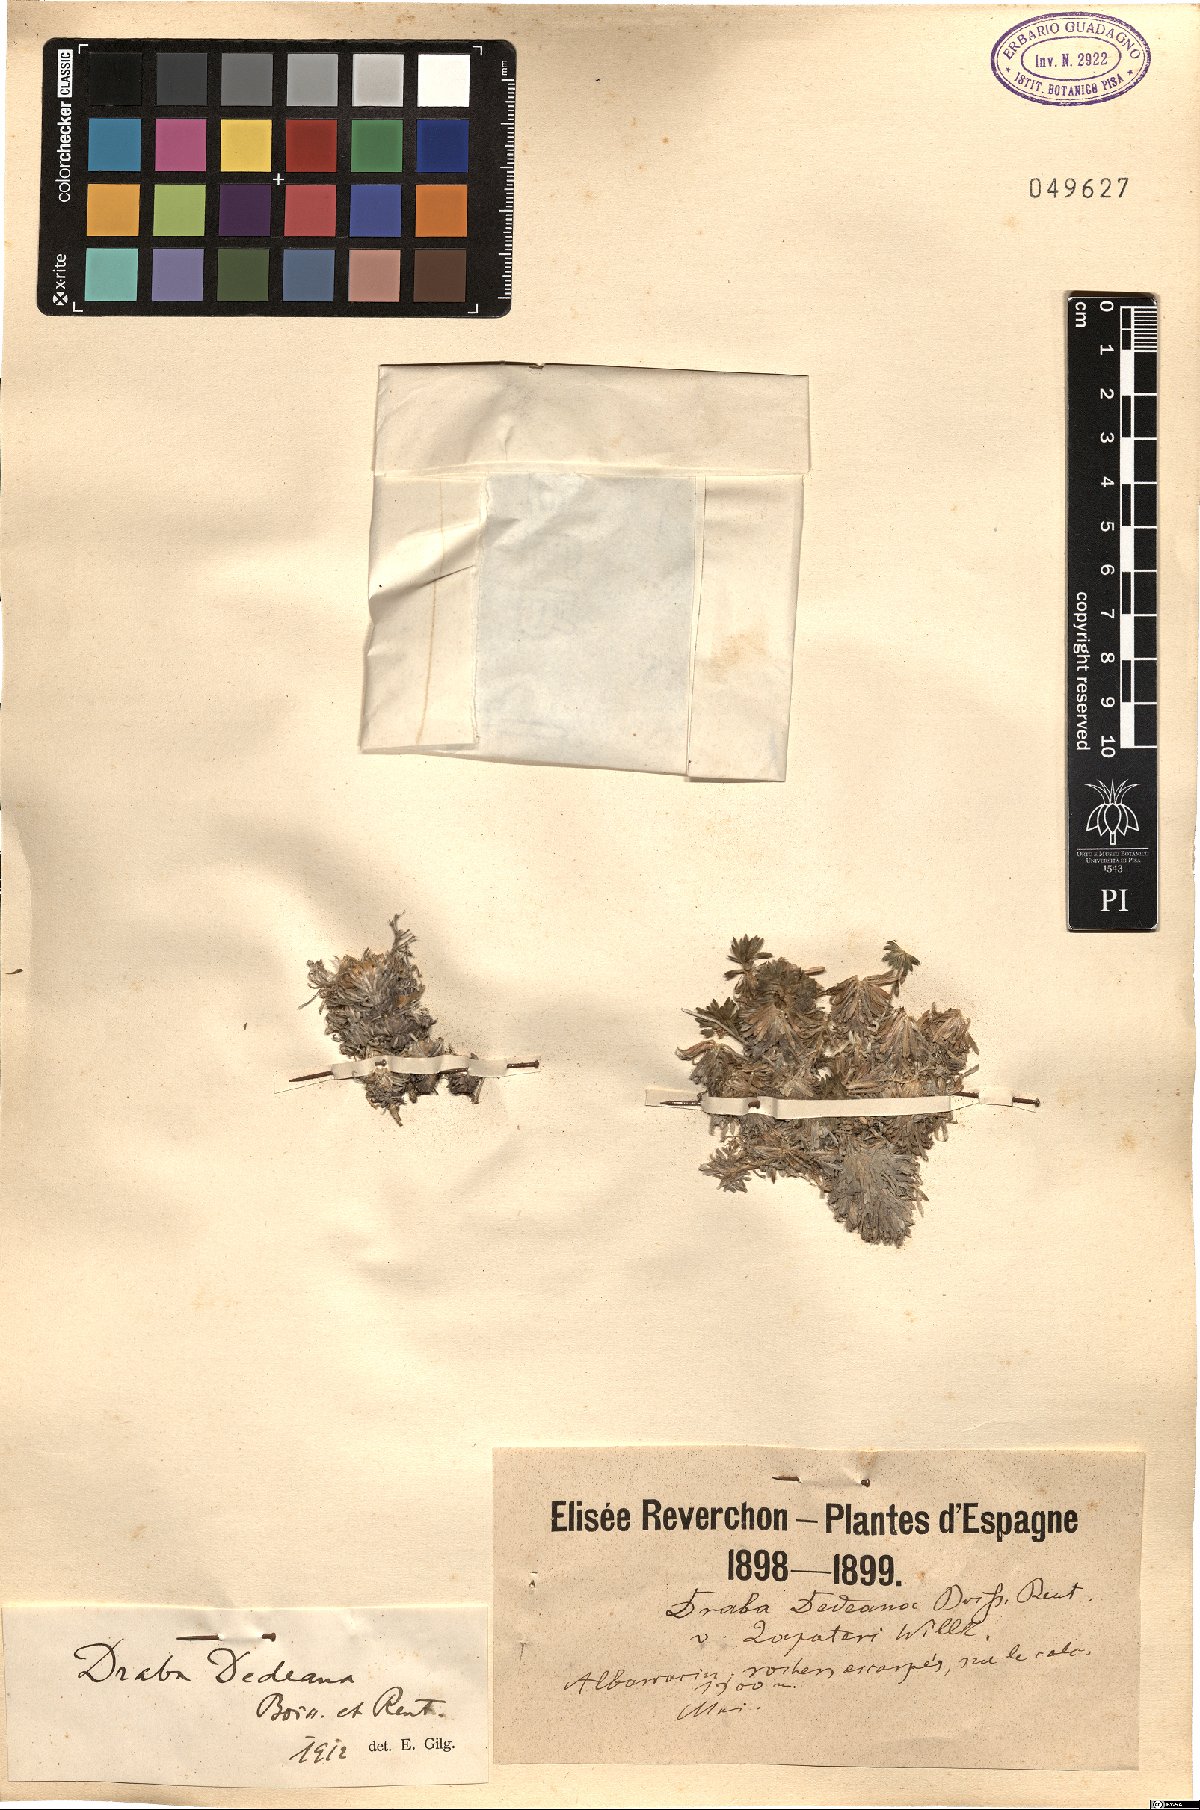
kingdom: Plantae
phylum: Tracheophyta
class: Magnoliopsida
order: Brassicales
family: Brassicaceae
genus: Draba
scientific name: Draba dedeana
